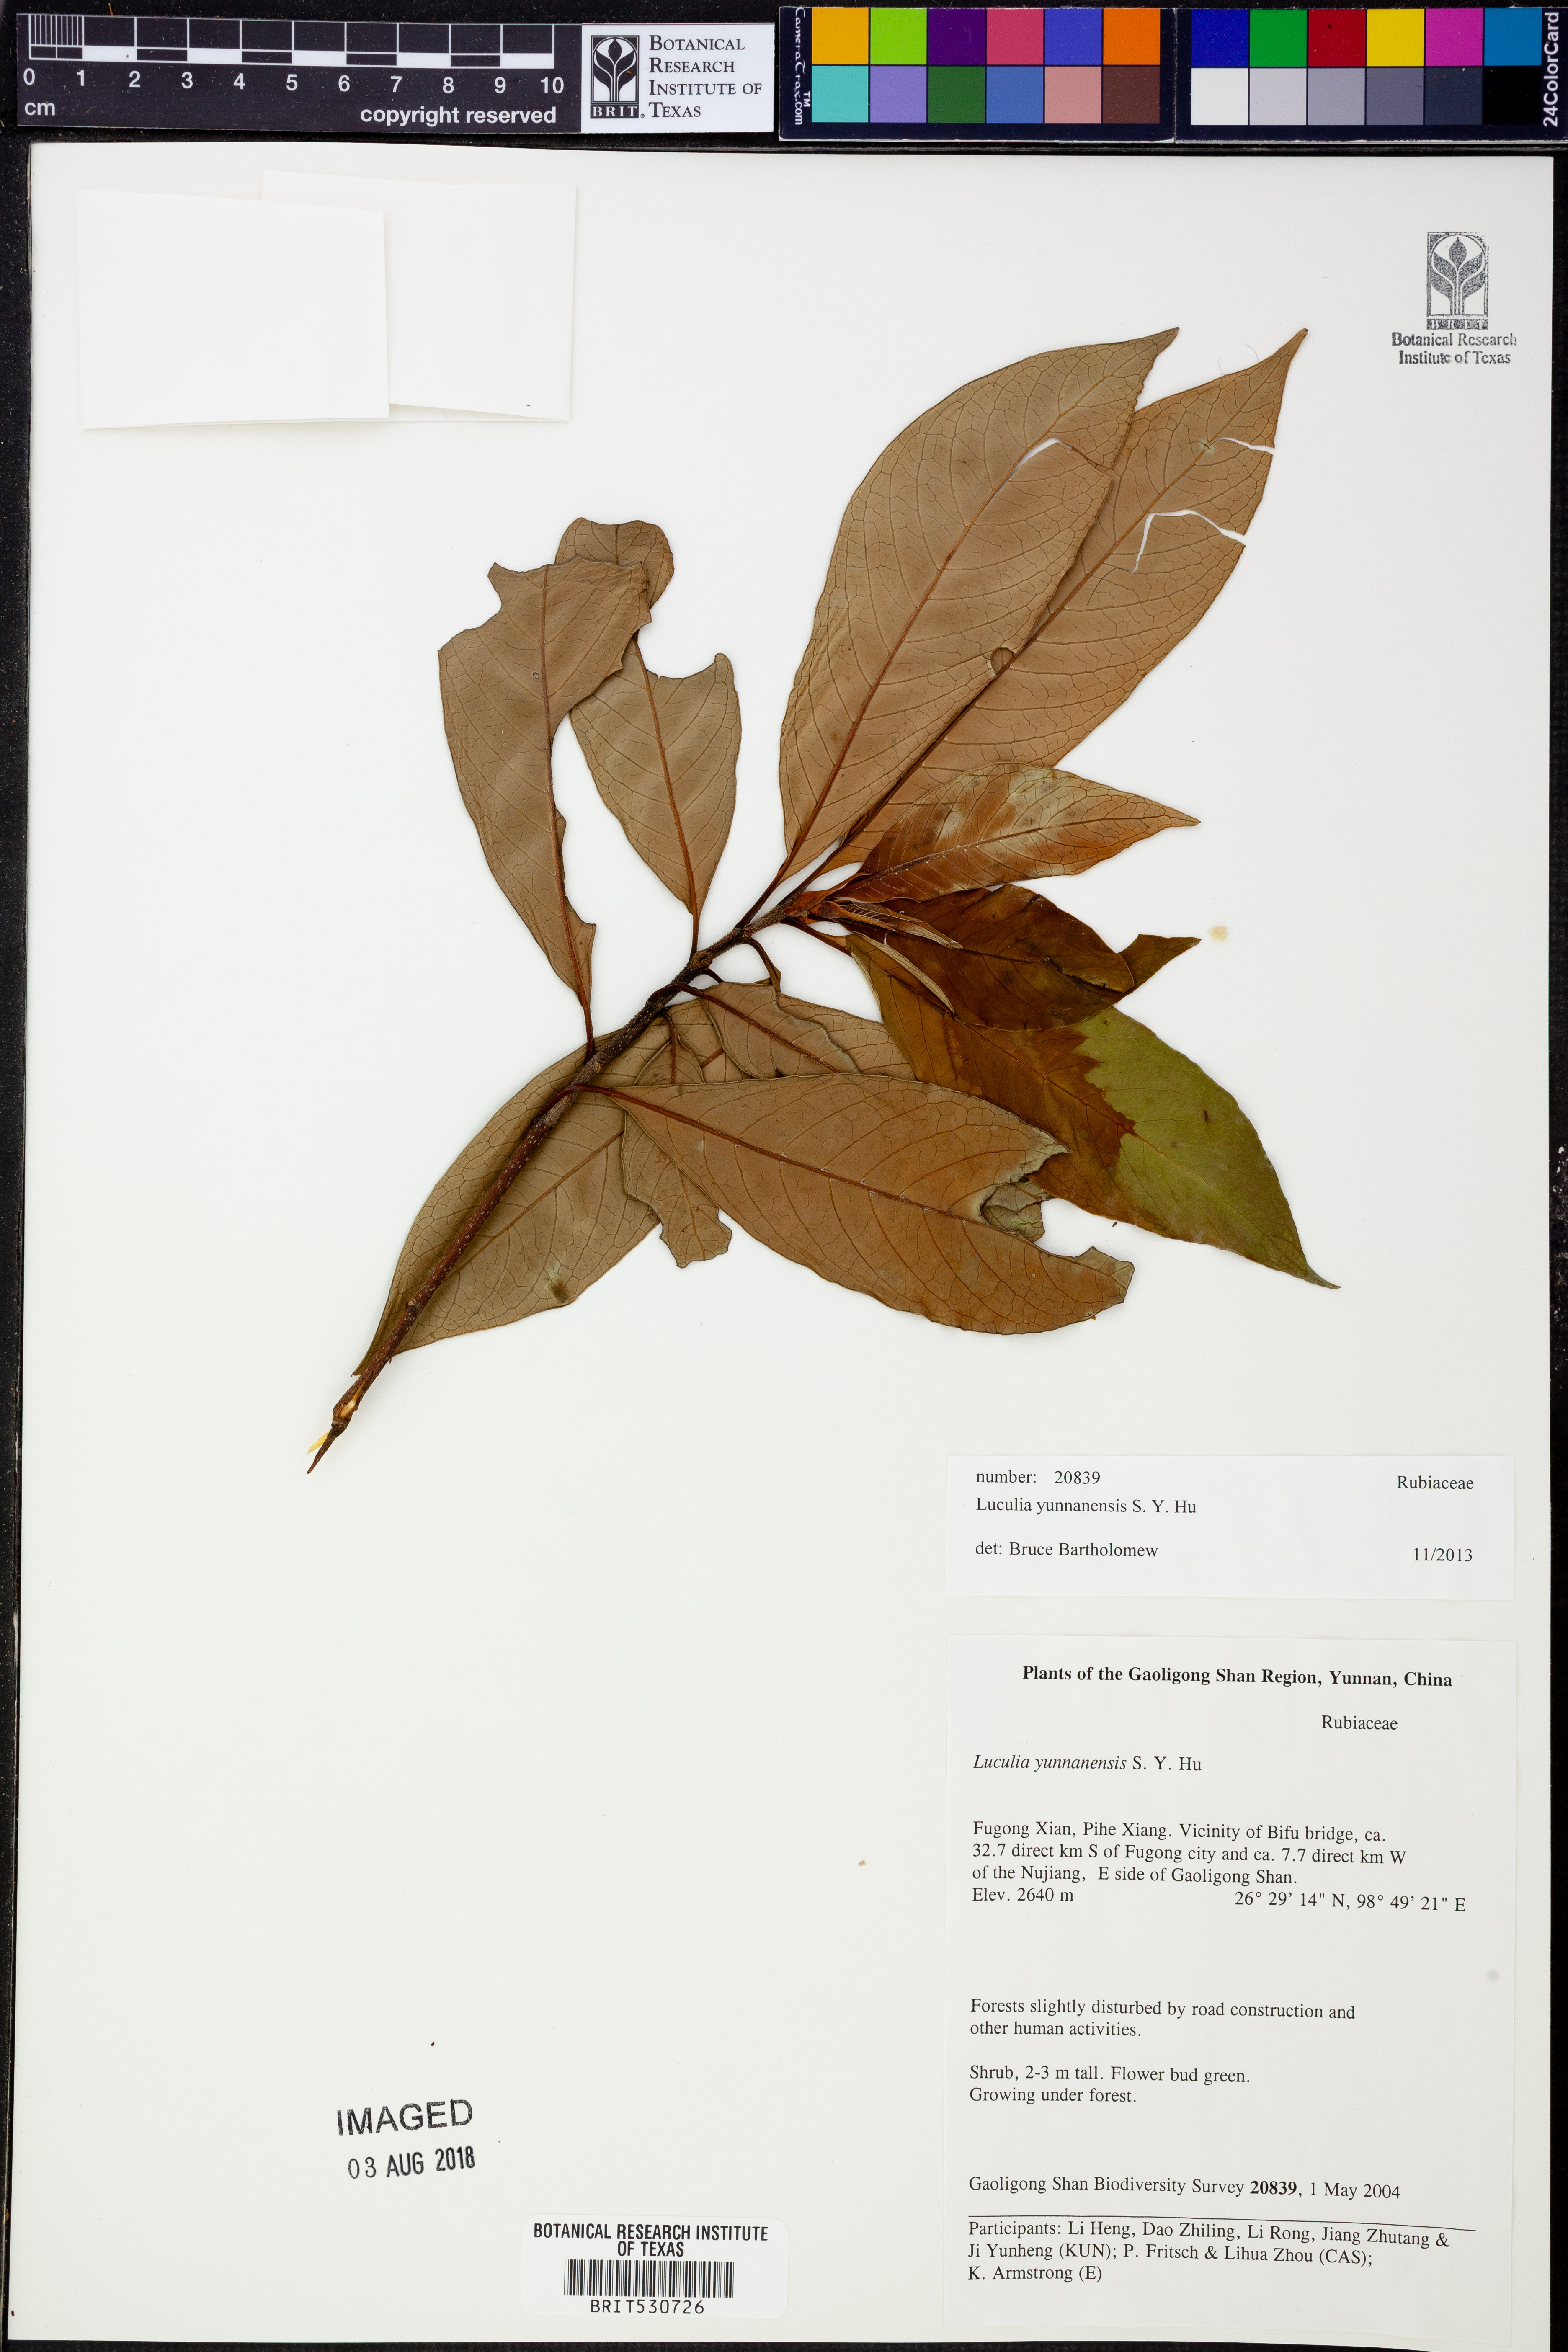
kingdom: Plantae
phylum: Tracheophyta
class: Magnoliopsida
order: Gentianales
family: Rubiaceae
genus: Luculia
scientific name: Luculia yunnanensis
